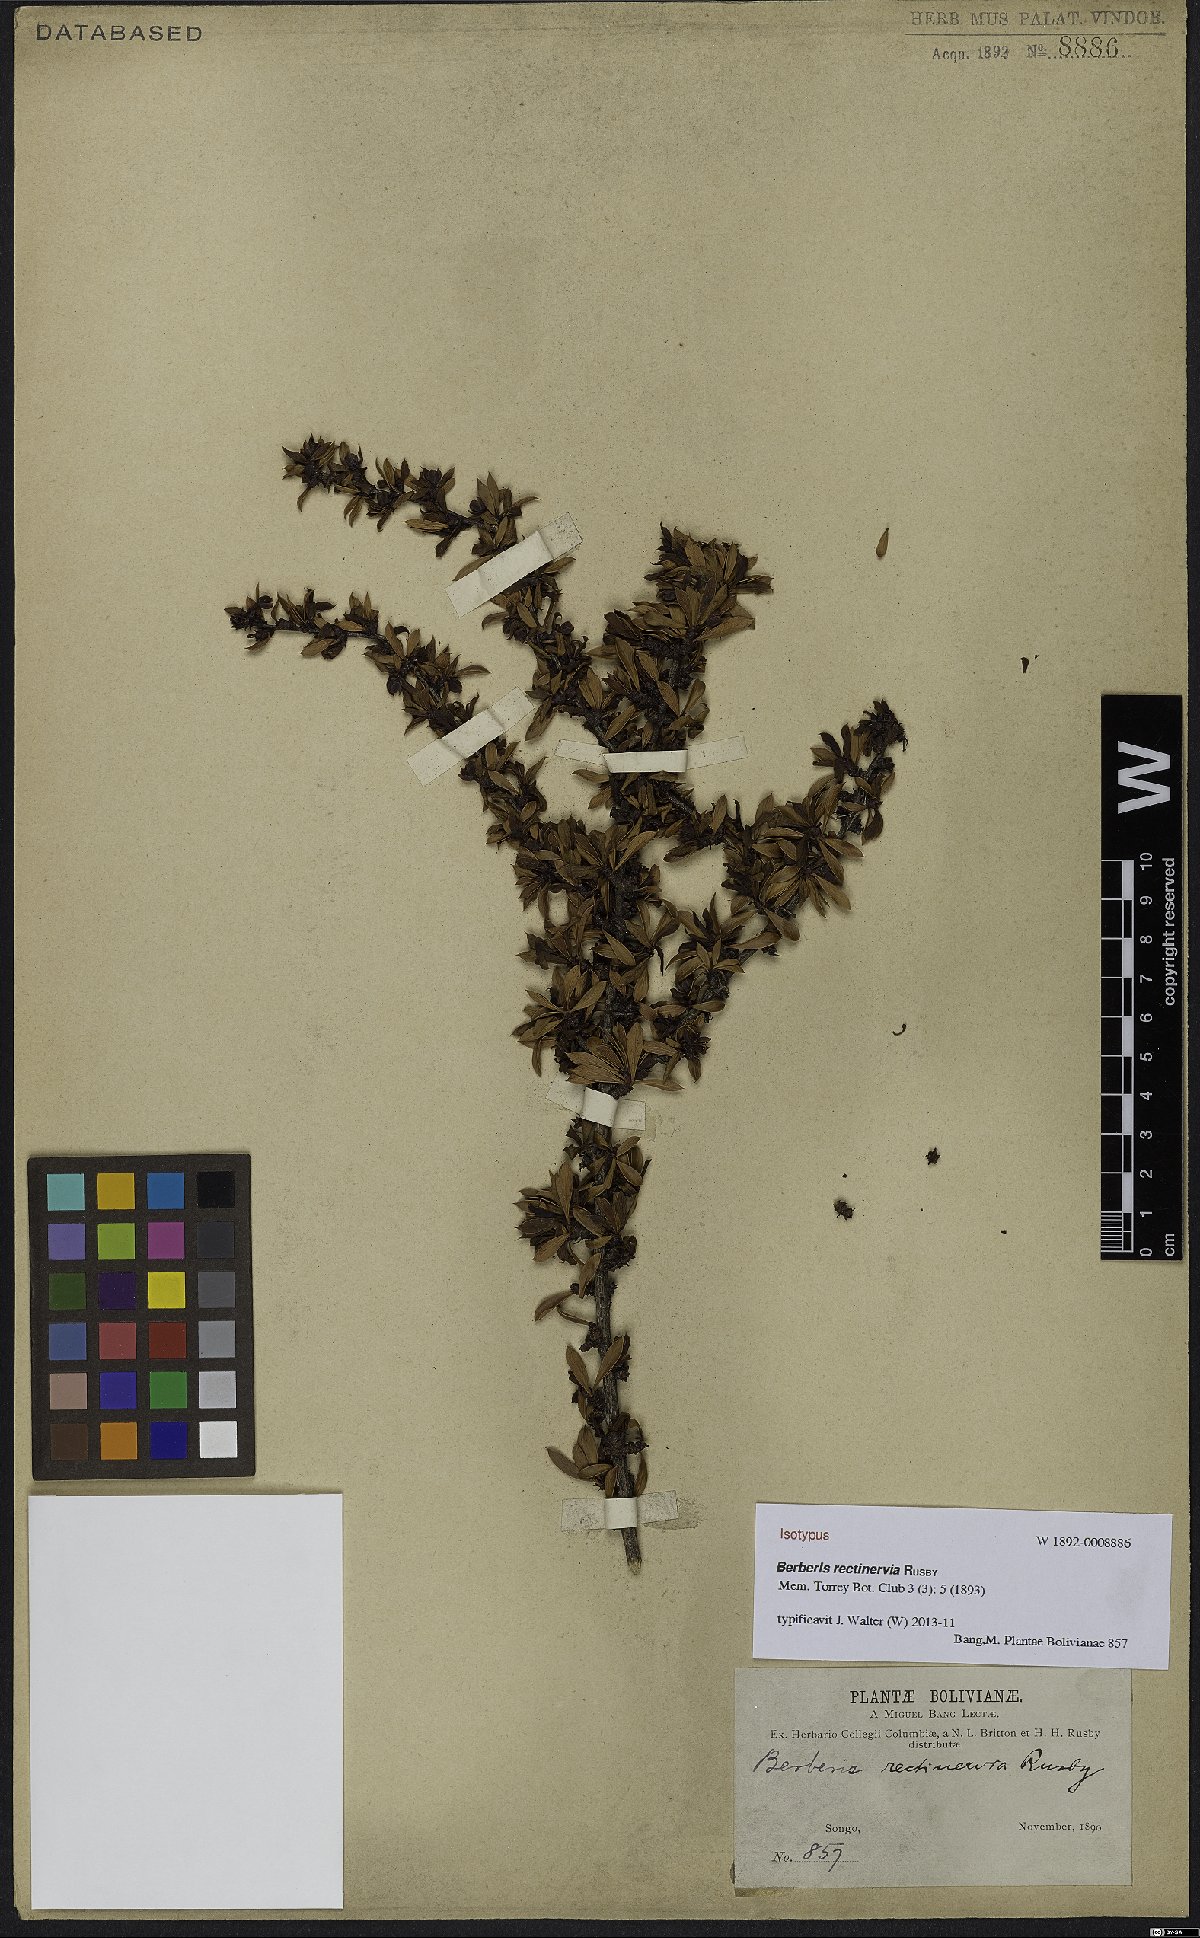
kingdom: Plantae
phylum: Tracheophyta
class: Magnoliopsida
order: Ranunculales
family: Berberidaceae
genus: Berberis
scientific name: Berberis rariflora
